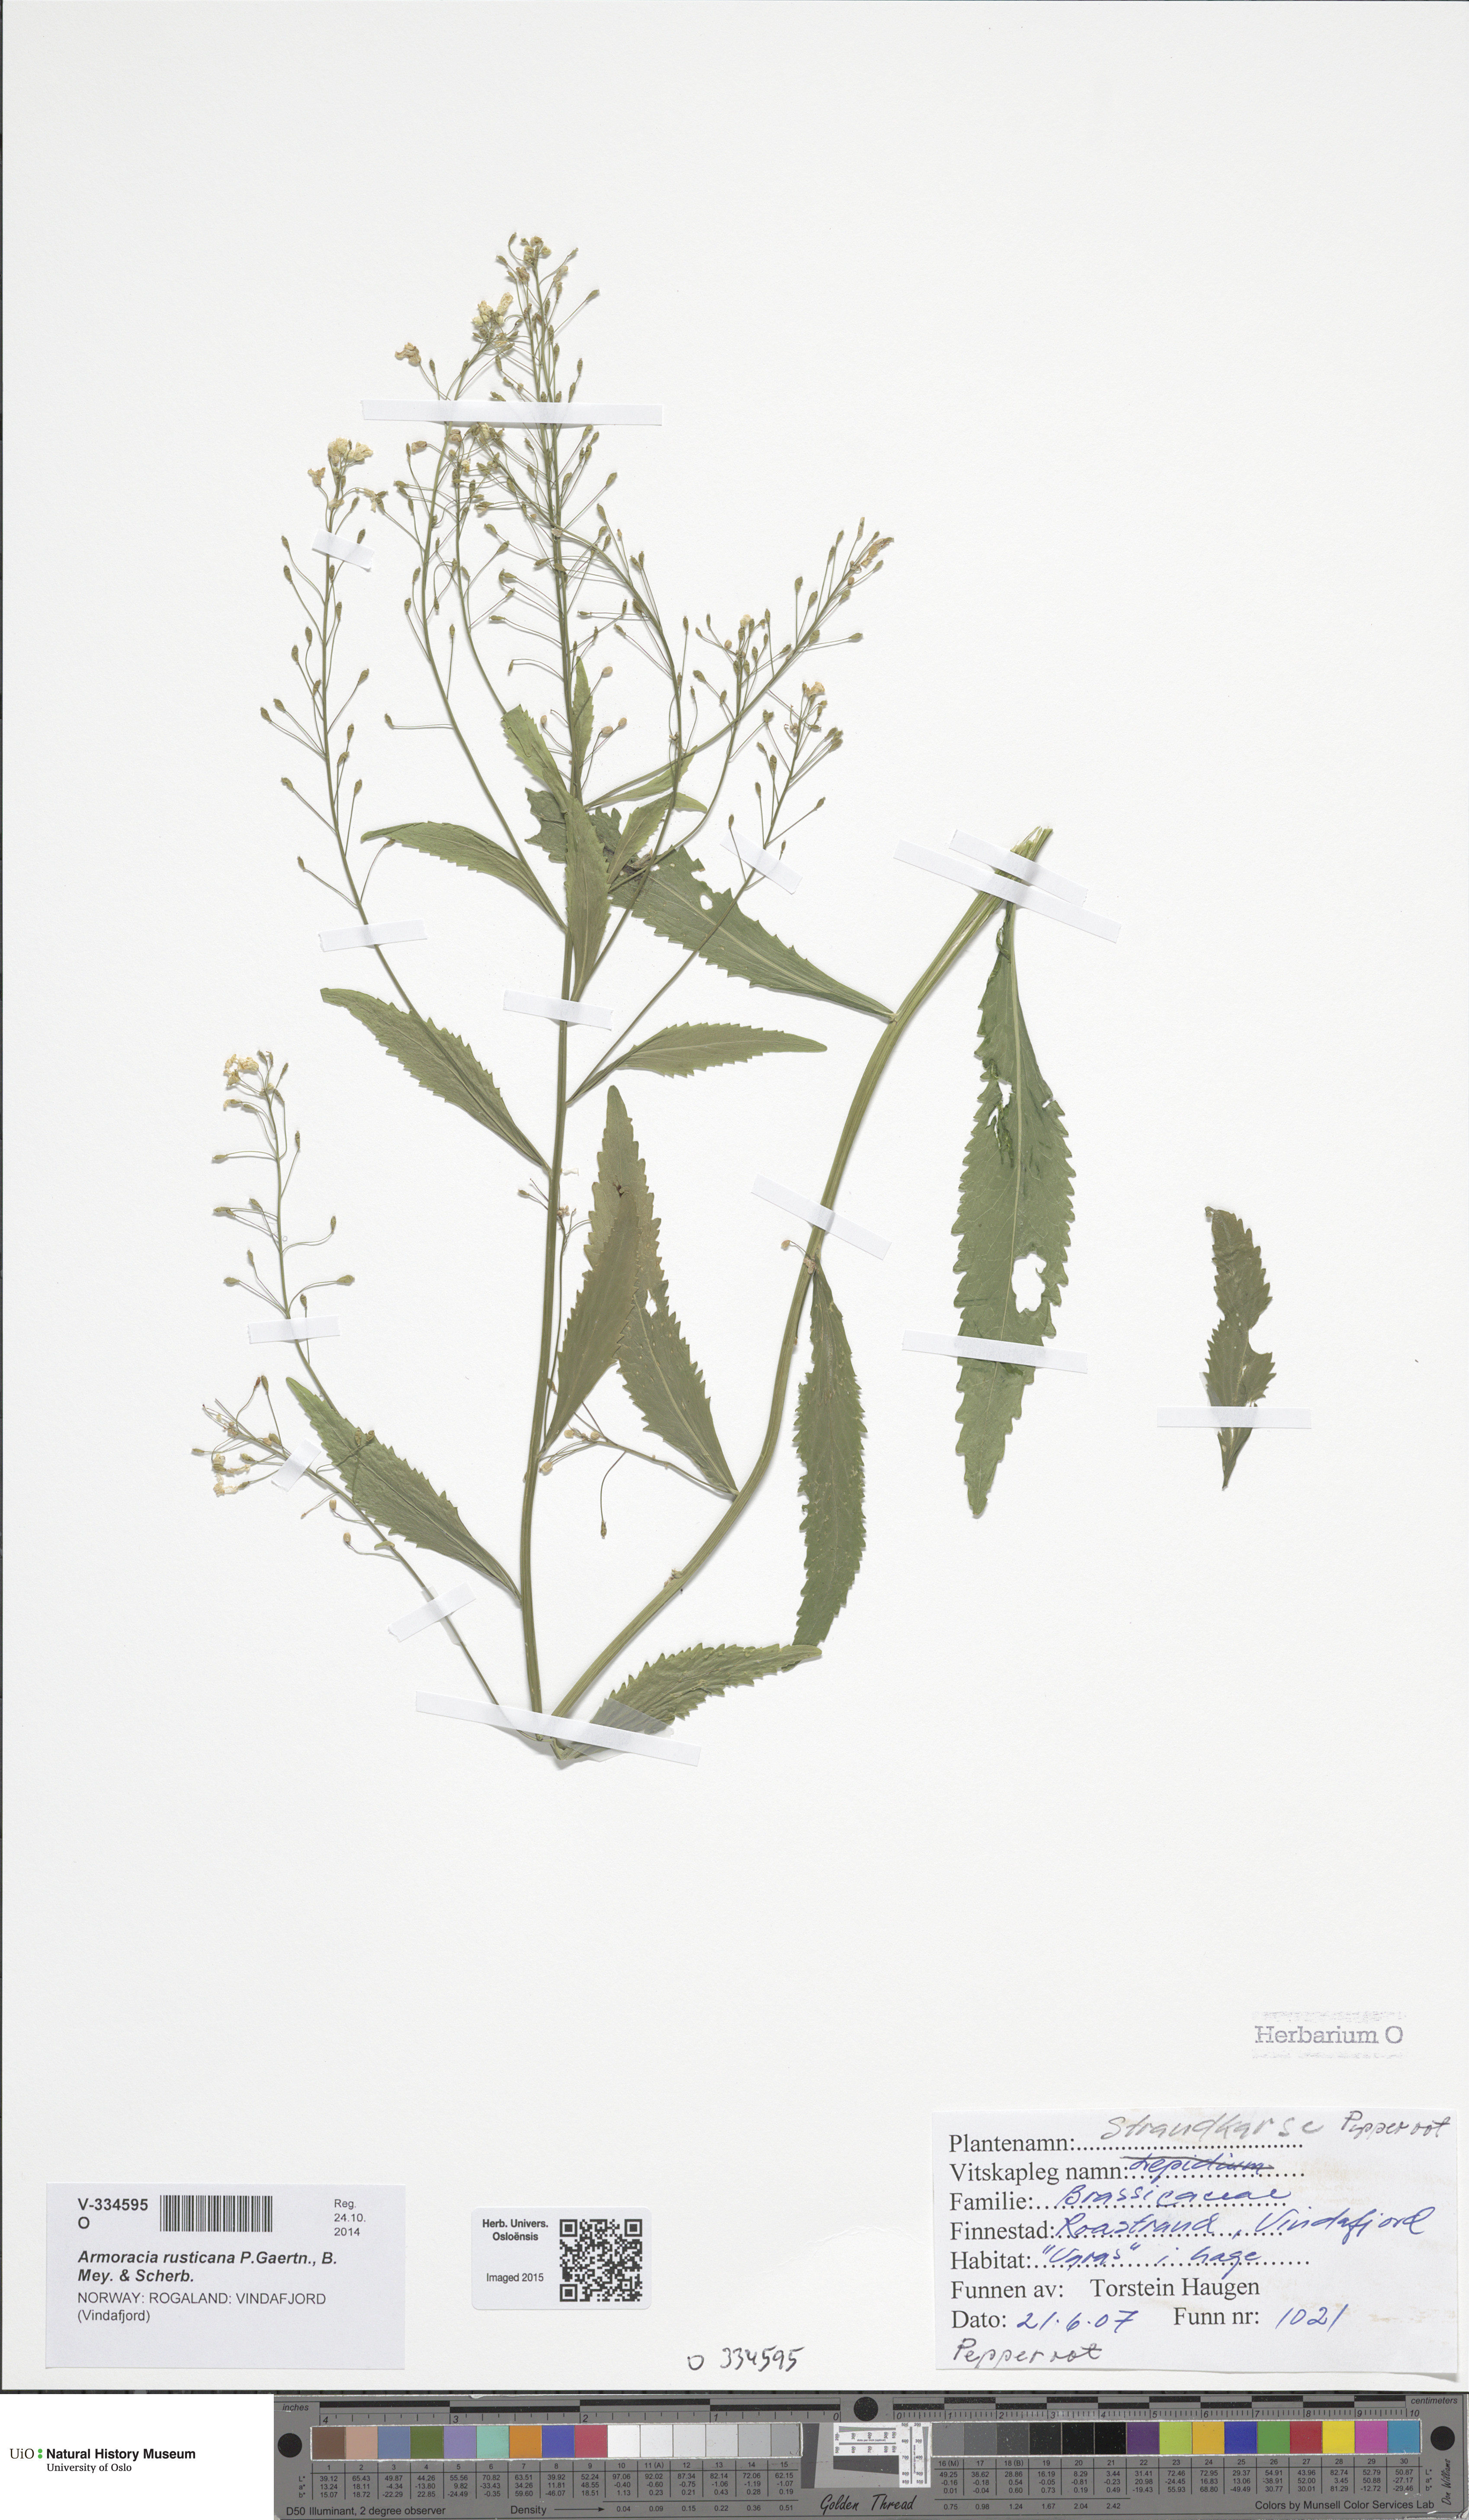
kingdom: Plantae
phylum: Tracheophyta
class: Magnoliopsida
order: Brassicales
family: Brassicaceae
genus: Armoracia
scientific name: Armoracia rusticana
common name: Horseradish
